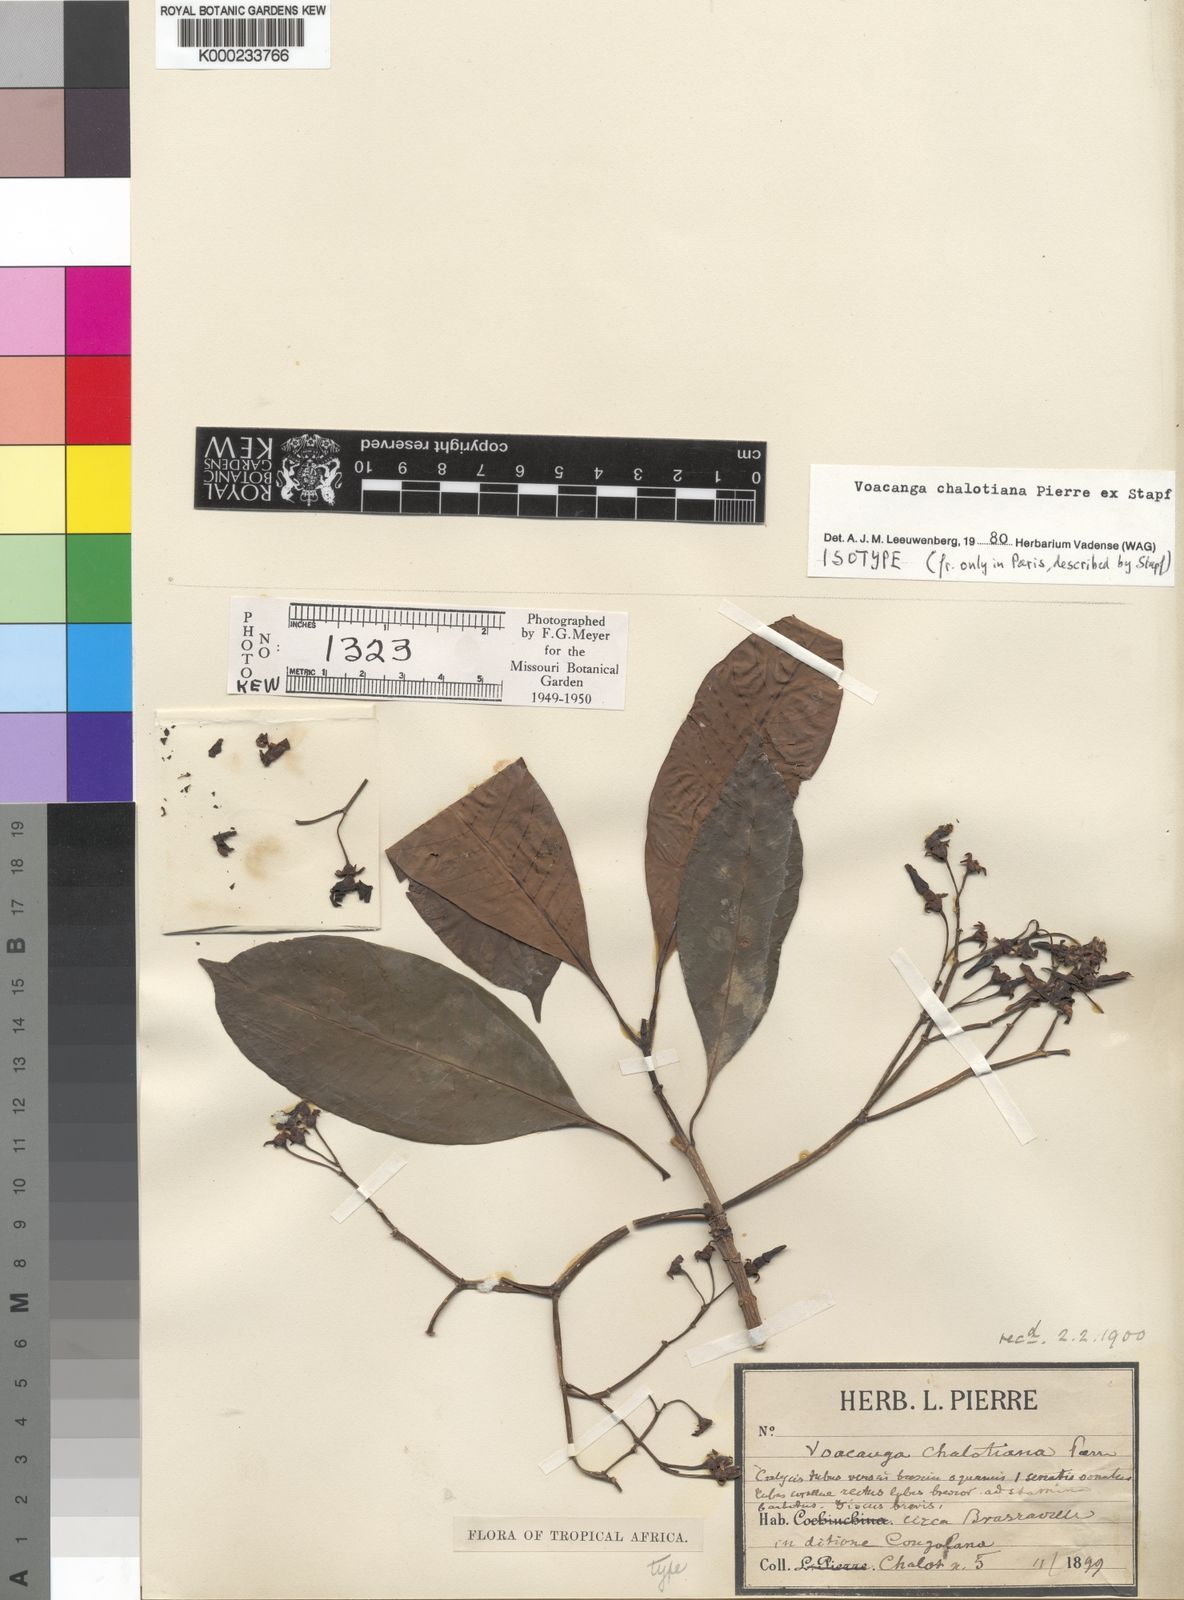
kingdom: Plantae
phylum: Tracheophyta
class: Magnoliopsida
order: Gentianales
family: Apocynaceae
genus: Voacanga
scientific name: Voacanga chalotiana
